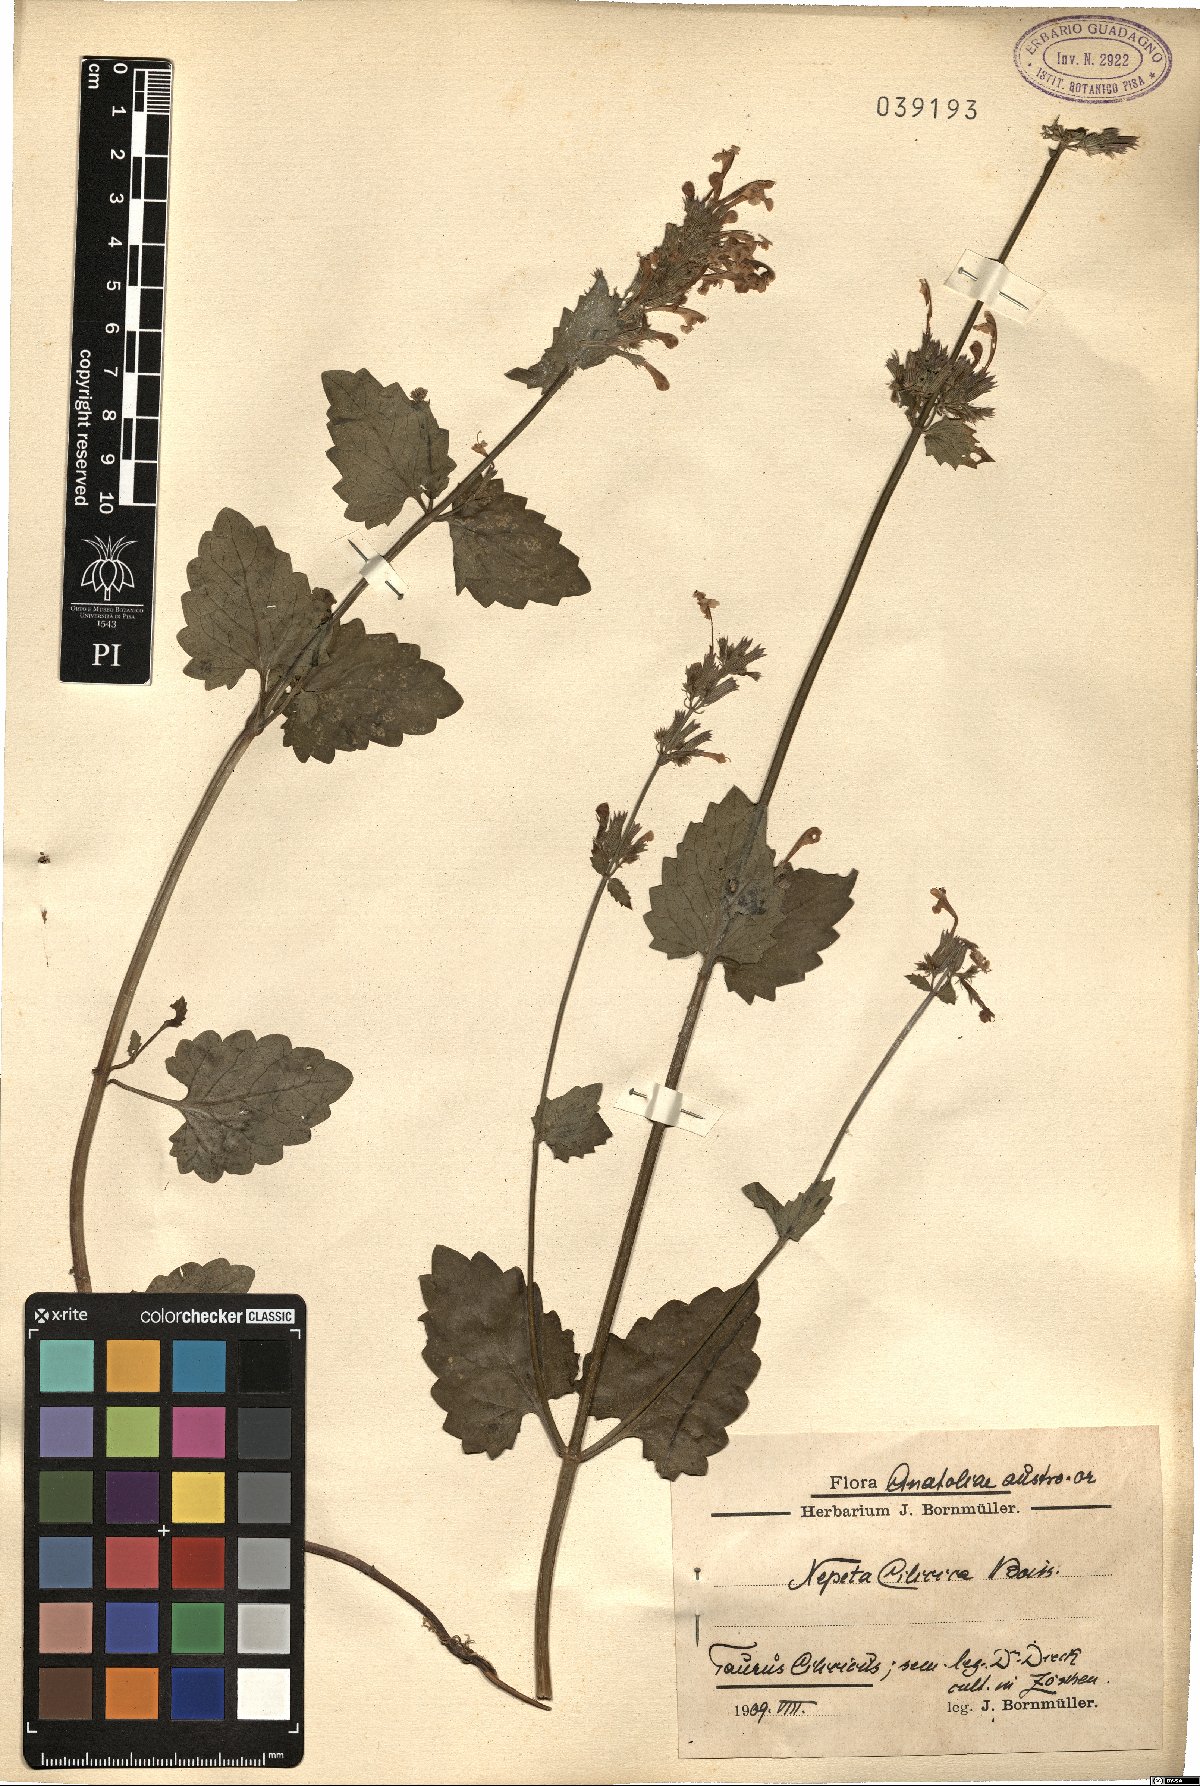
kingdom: Plantae
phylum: Tracheophyta
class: Magnoliopsida
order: Lamiales
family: Lamiaceae
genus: Nepeta
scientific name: Nepeta cilicica
